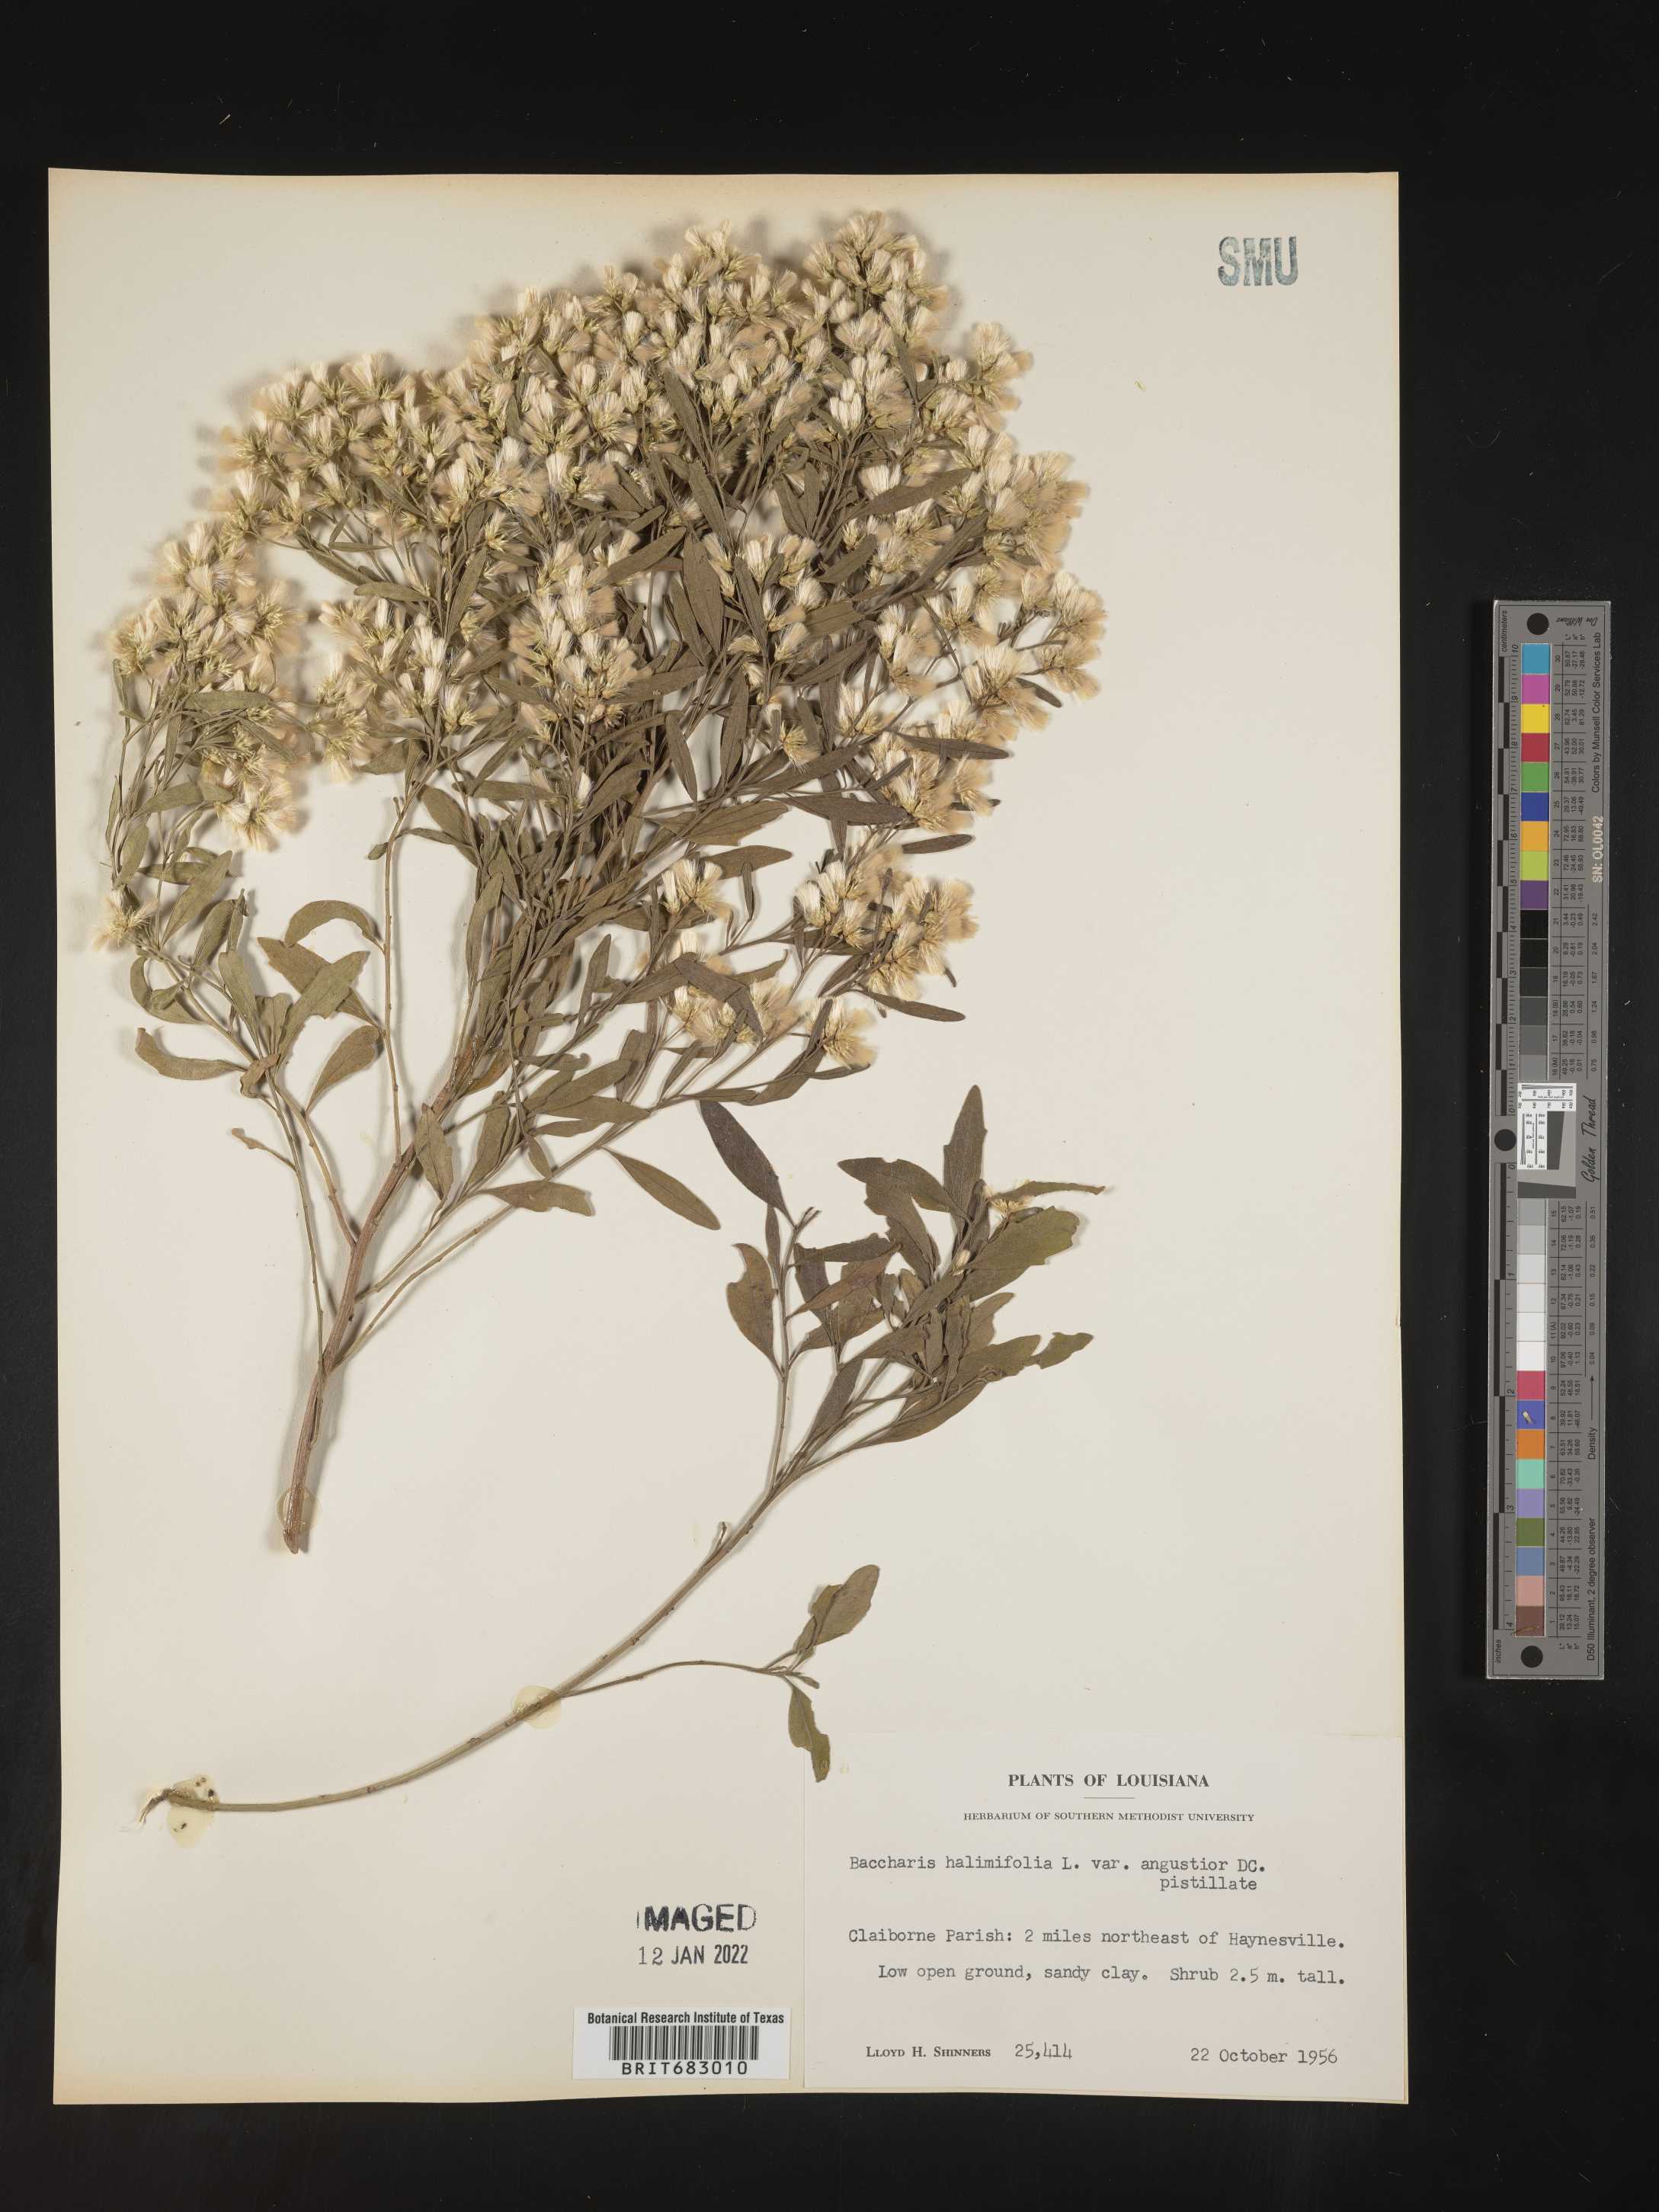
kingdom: Plantae
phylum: Tracheophyta
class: Magnoliopsida
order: Asterales
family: Asteraceae
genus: Nidorella
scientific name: Nidorella ivifolia
